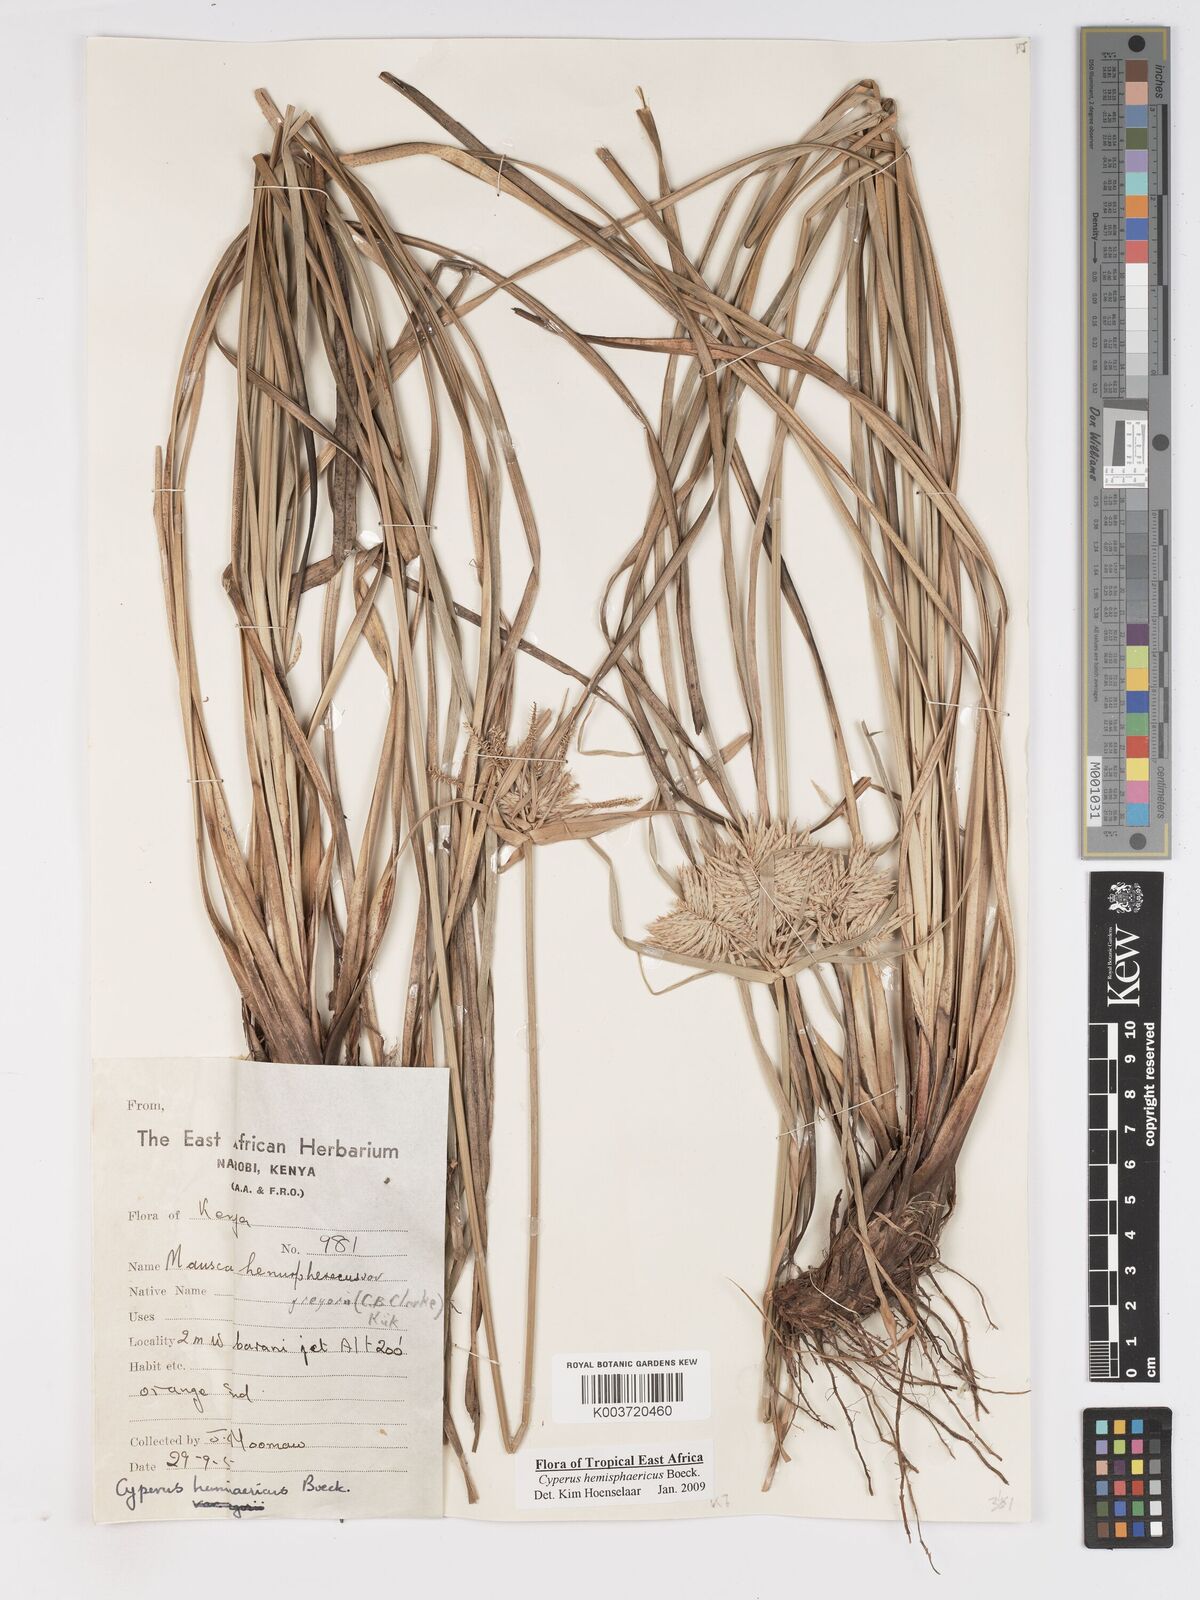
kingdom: Plantae
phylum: Tracheophyta
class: Liliopsida
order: Poales
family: Cyperaceae
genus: Cyperus
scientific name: Cyperus hemisphaericus
